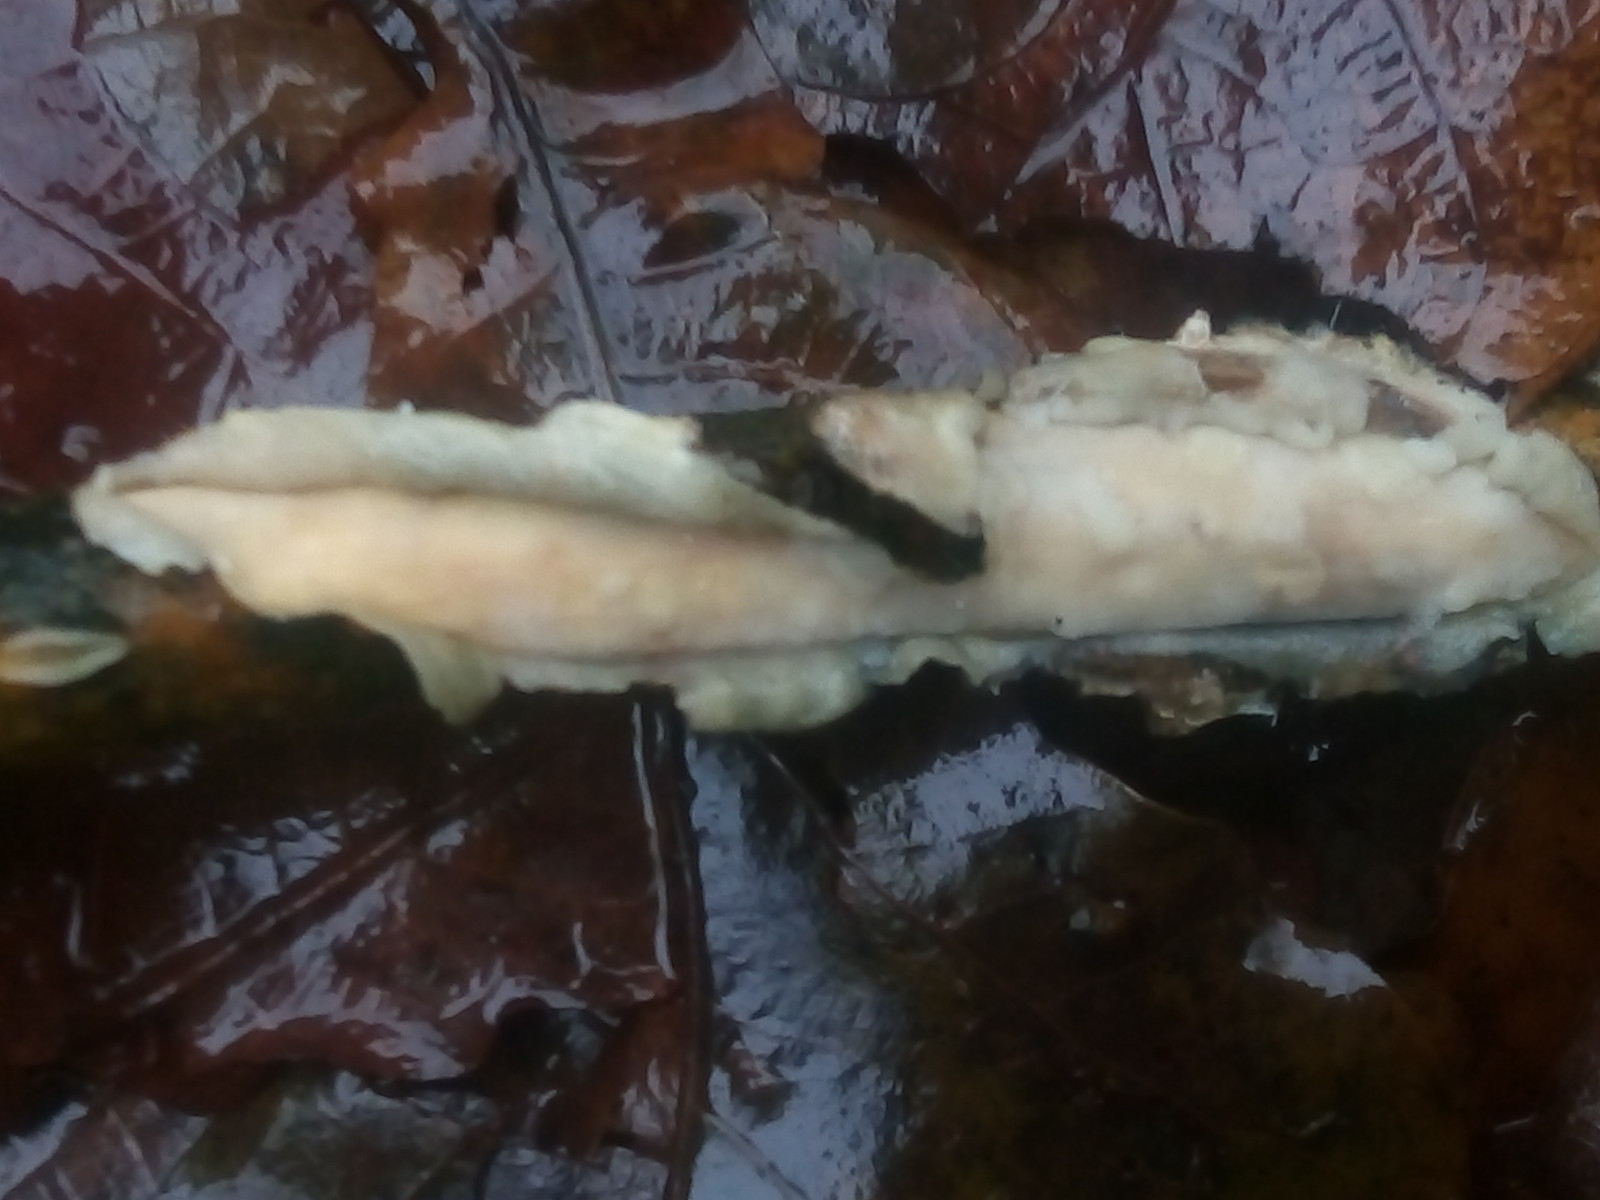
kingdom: Fungi
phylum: Basidiomycota
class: Agaricomycetes
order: Corticiales
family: Vuilleminiaceae
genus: Vuilleminia
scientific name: Vuilleminia comedens
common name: almindelig barksprænger
